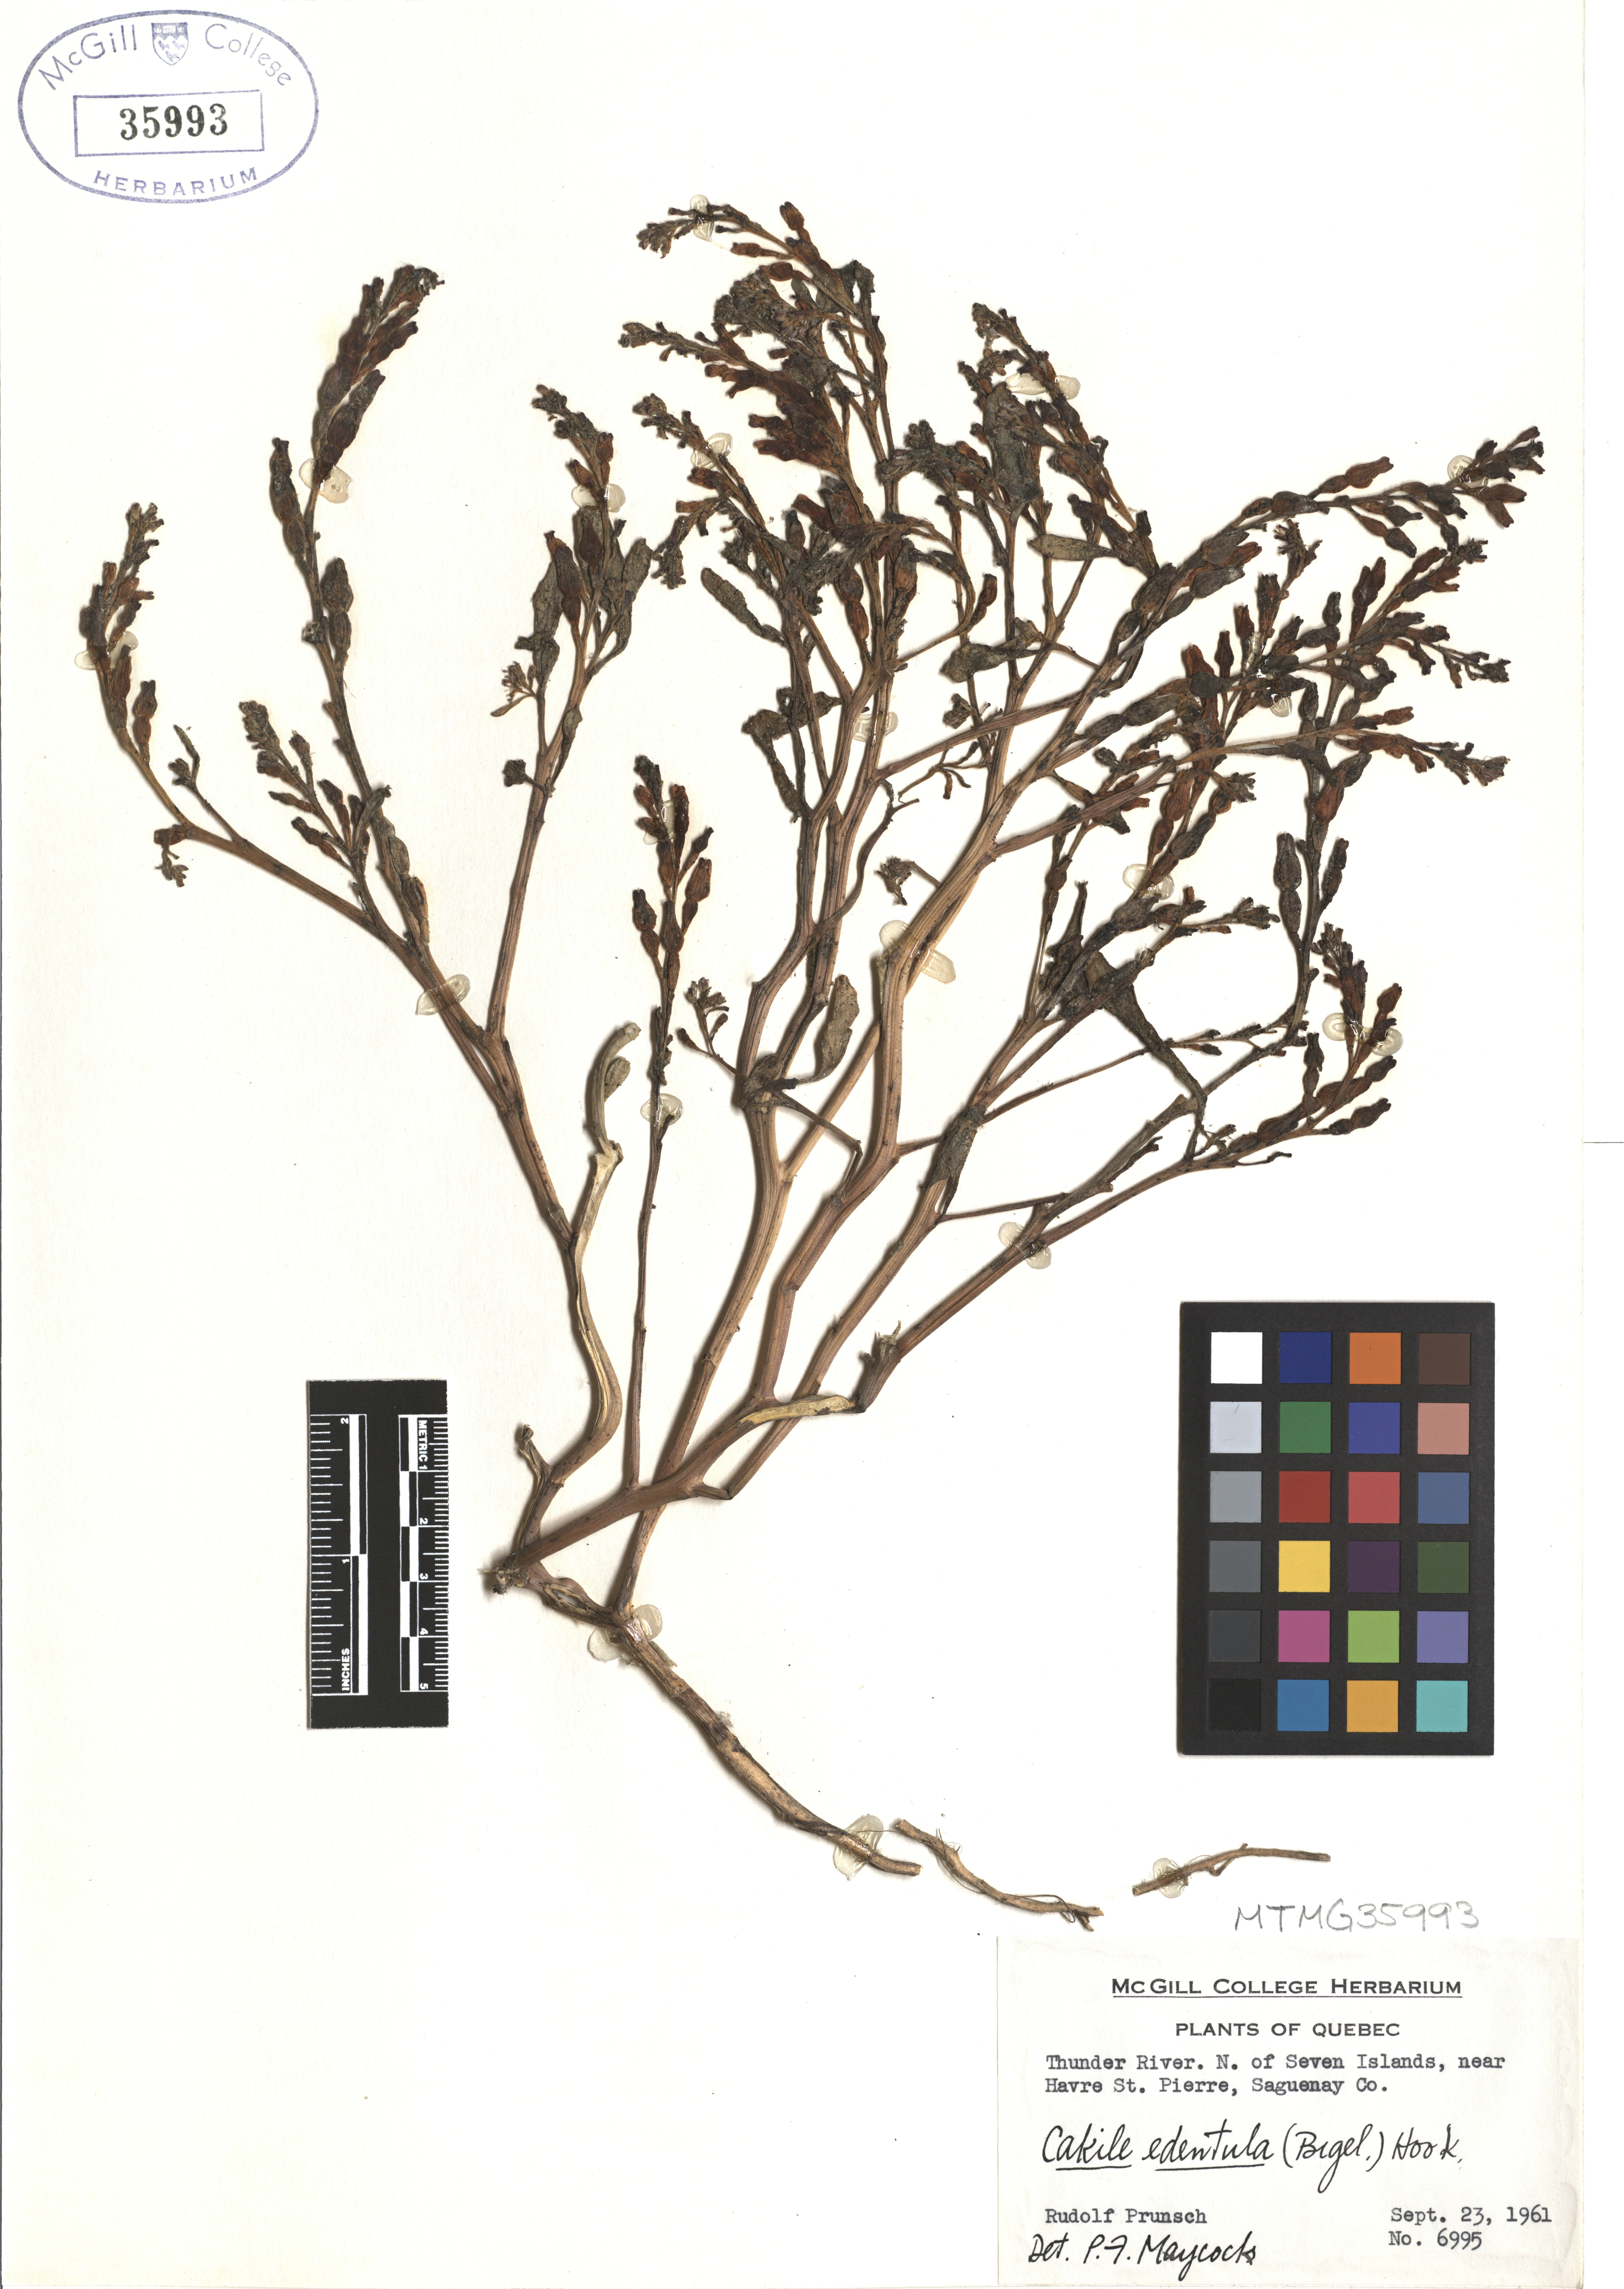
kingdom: Plantae
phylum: Tracheophyta
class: Magnoliopsida
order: Brassicales
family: Brassicaceae
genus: Cakile
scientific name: Cakile edentula
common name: American sea rocket
